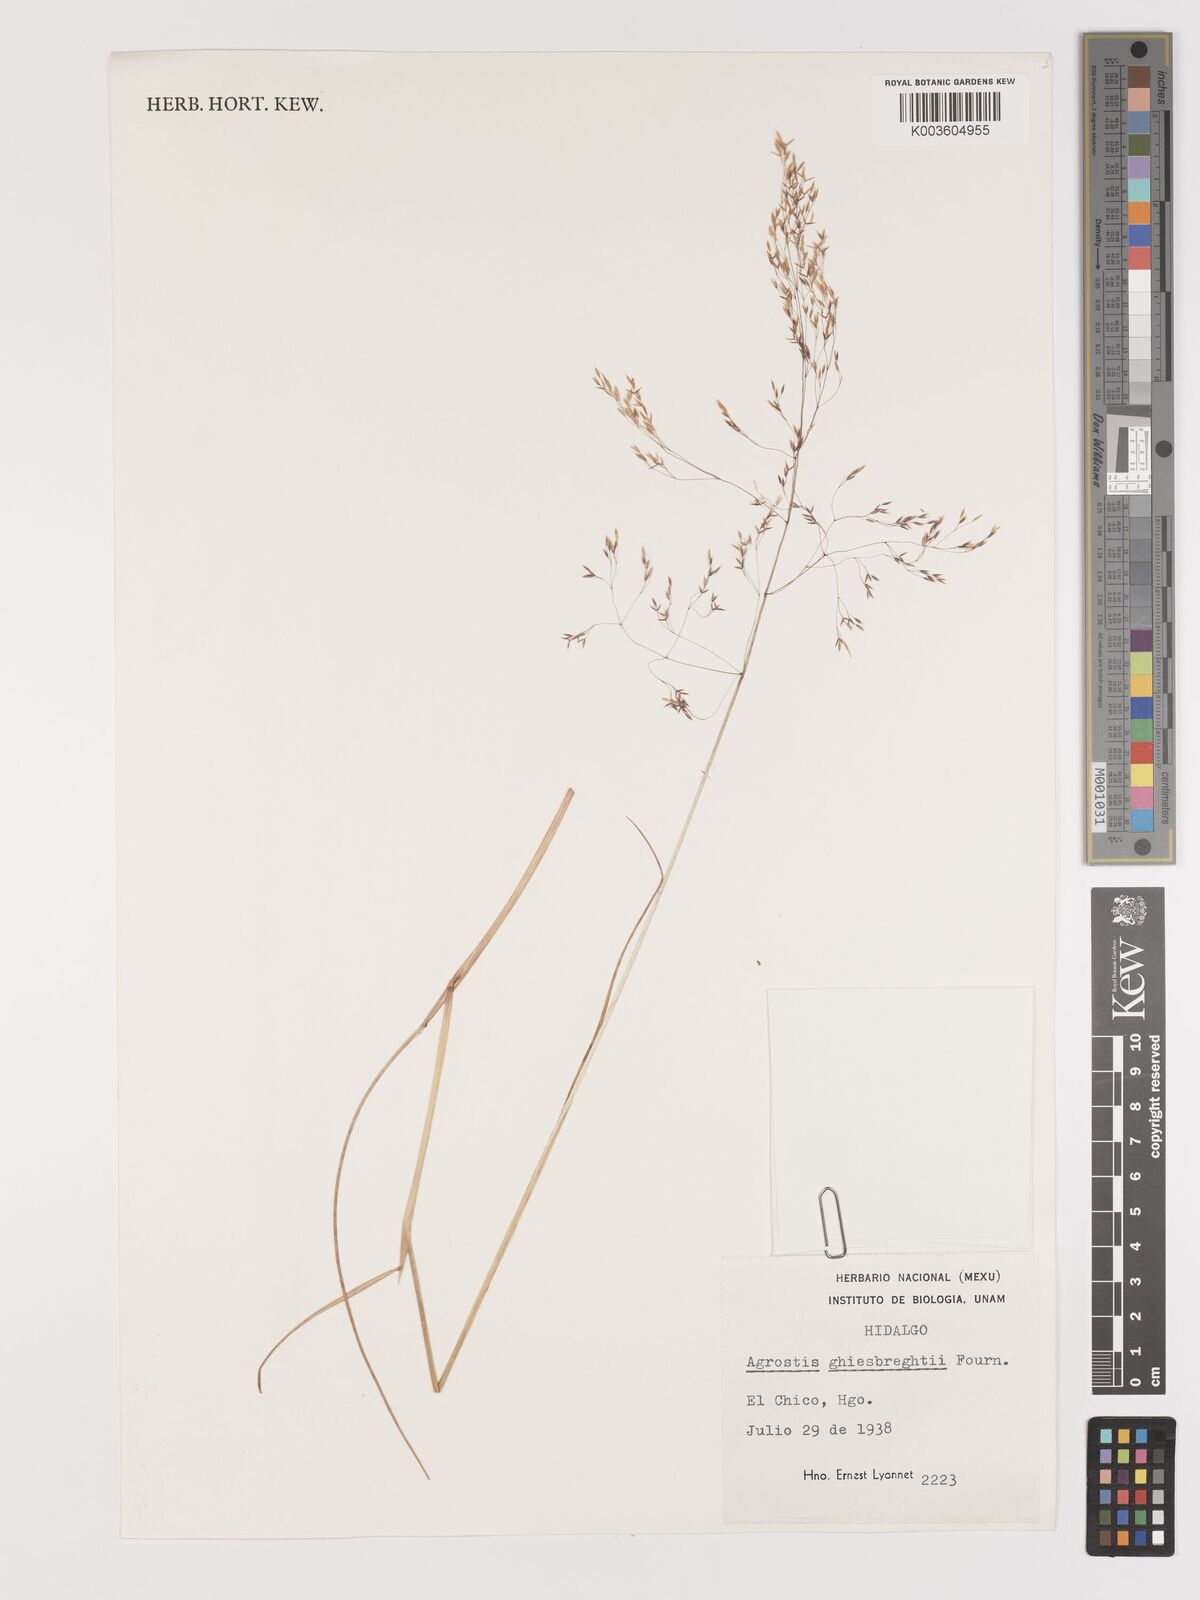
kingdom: Plantae
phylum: Tracheophyta
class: Liliopsida
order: Poales
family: Poaceae
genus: Agrostis
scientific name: Agrostis ghiesbreghtii
